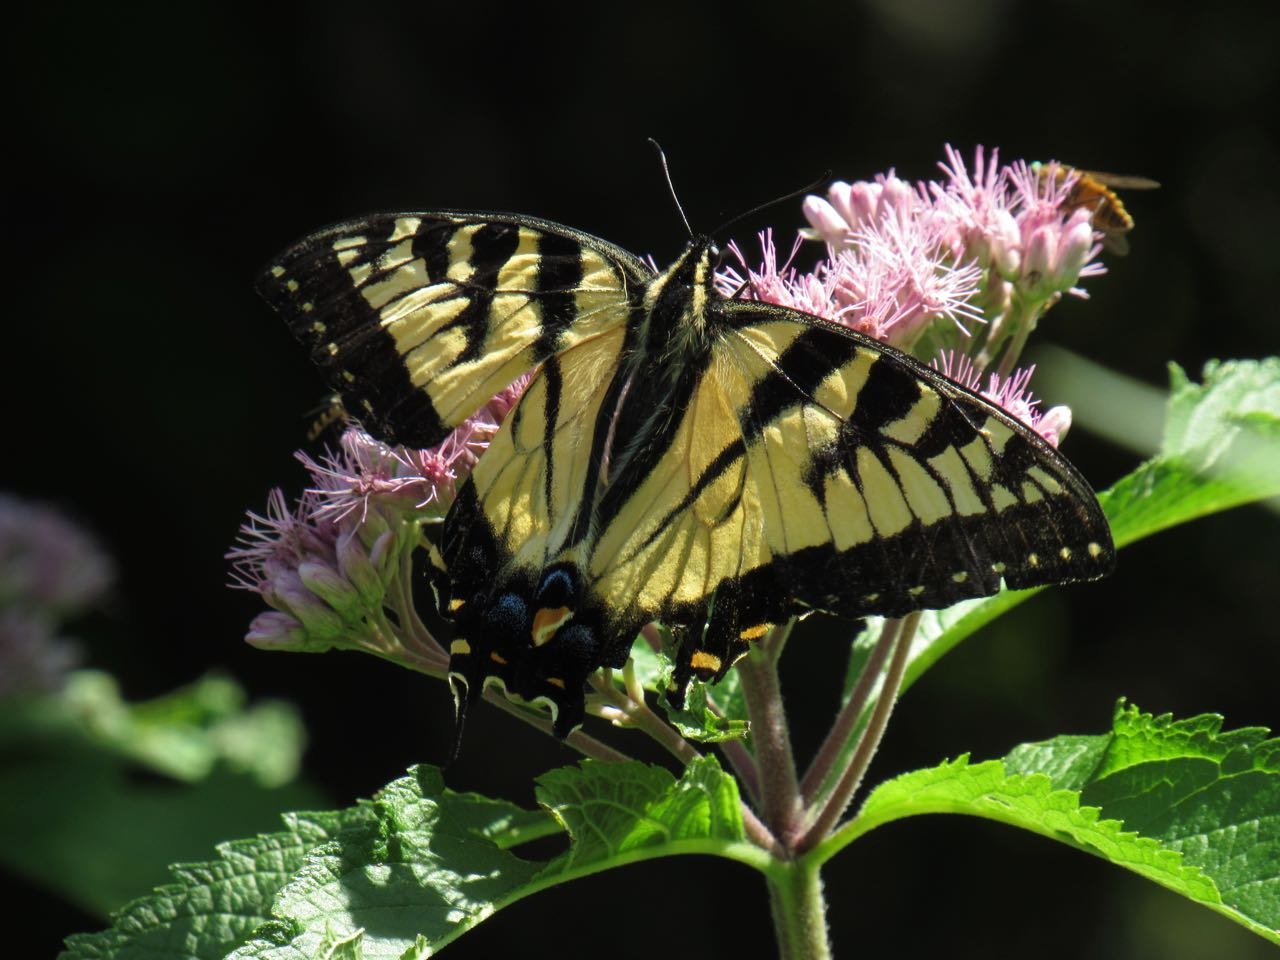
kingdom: Animalia
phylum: Arthropoda
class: Insecta
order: Lepidoptera
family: Papilionidae
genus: Pterourus
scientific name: Pterourus
